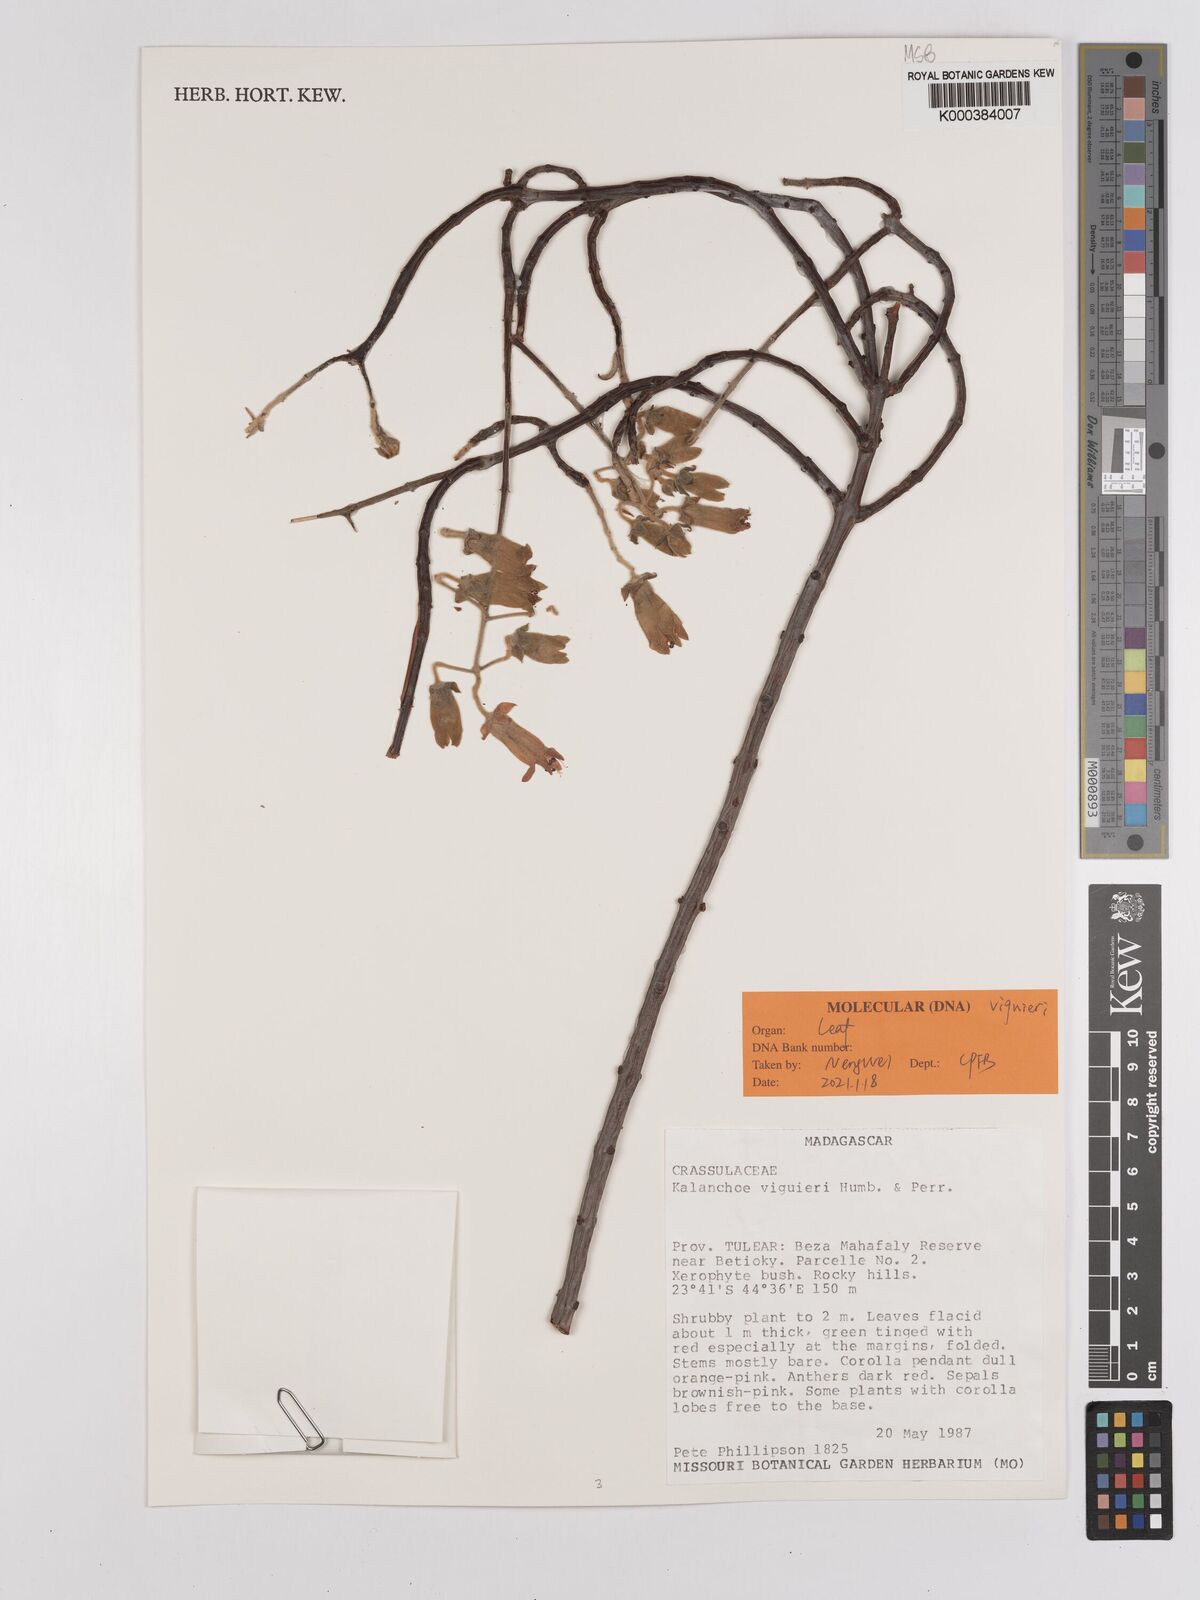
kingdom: Plantae
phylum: Tracheophyta
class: Magnoliopsida
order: Saxifragales
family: Crassulaceae
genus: Kalanchoe
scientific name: Kalanchoe viguieri
